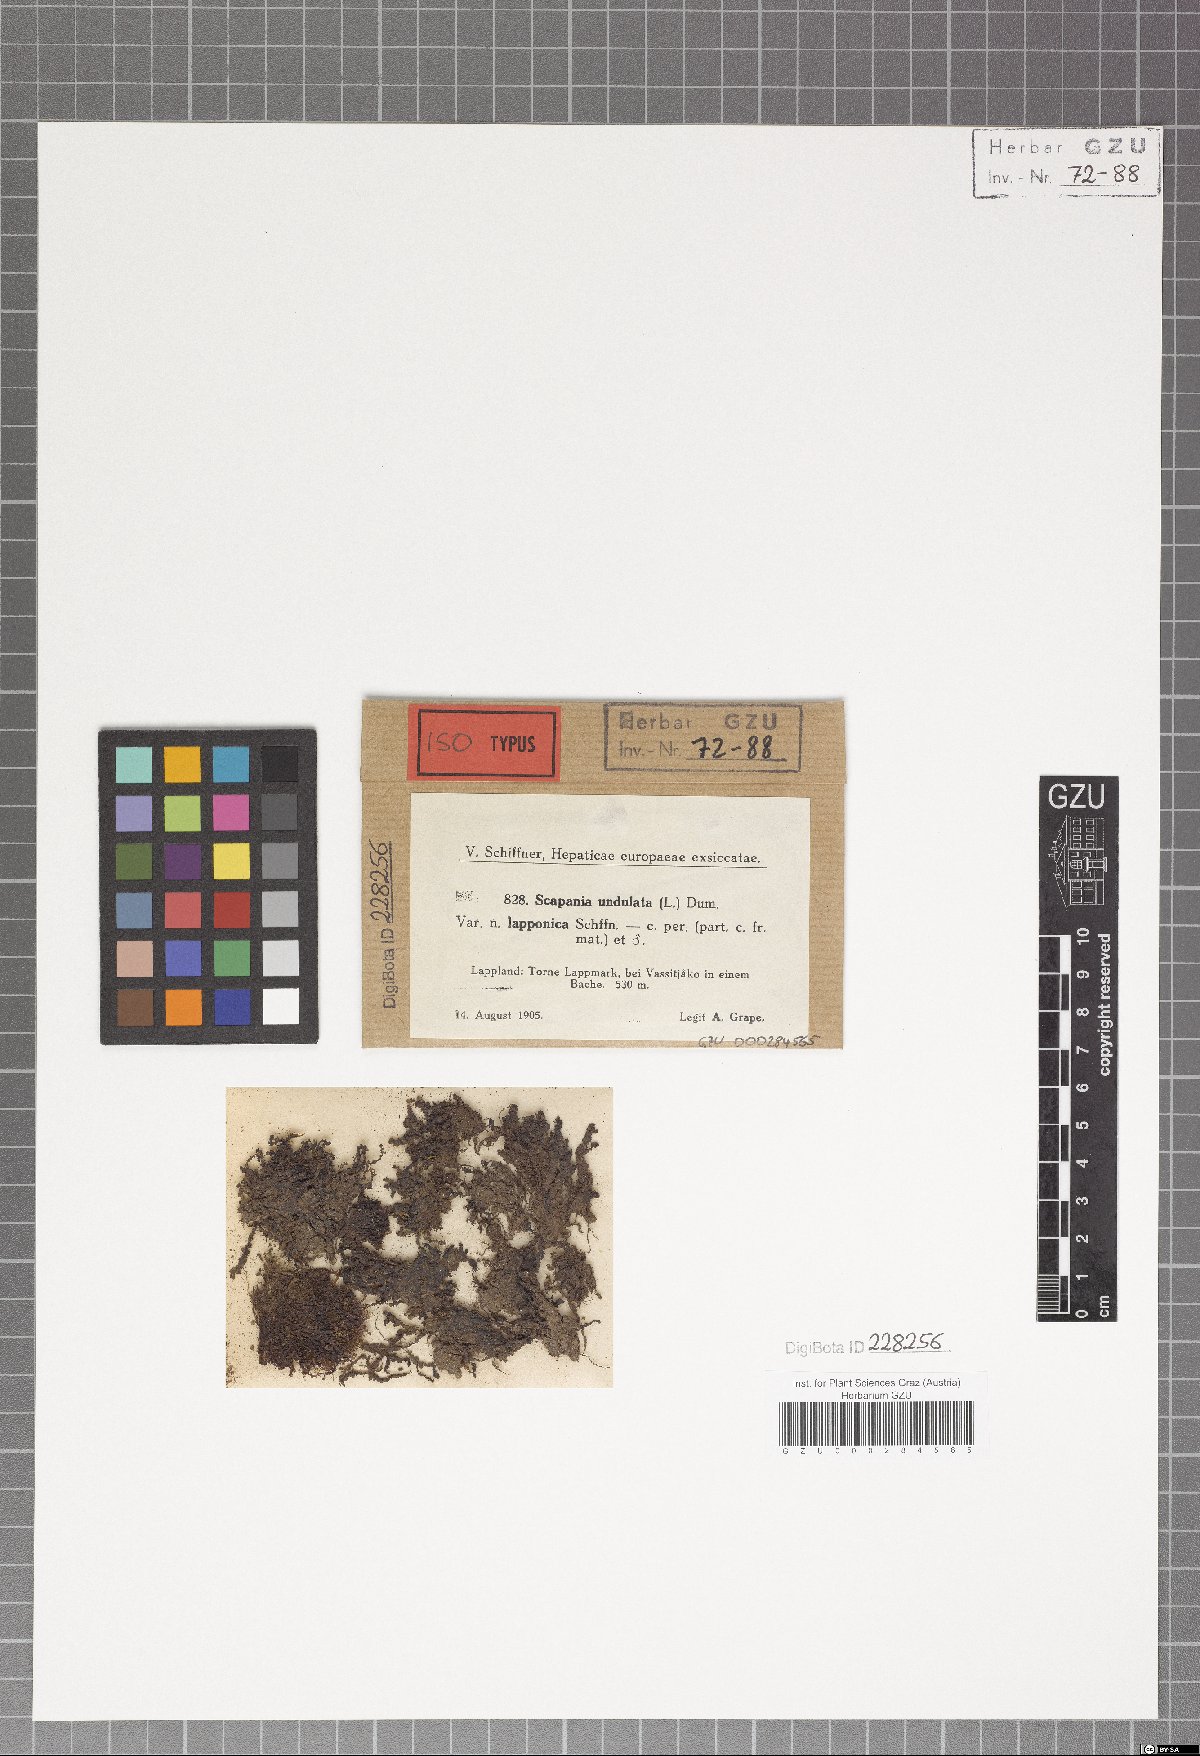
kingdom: Plantae
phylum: Marchantiophyta
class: Jungermanniopsida
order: Jungermanniales
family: Scapaniaceae
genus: Scapania
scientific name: Scapania undulata
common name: Water earwort
